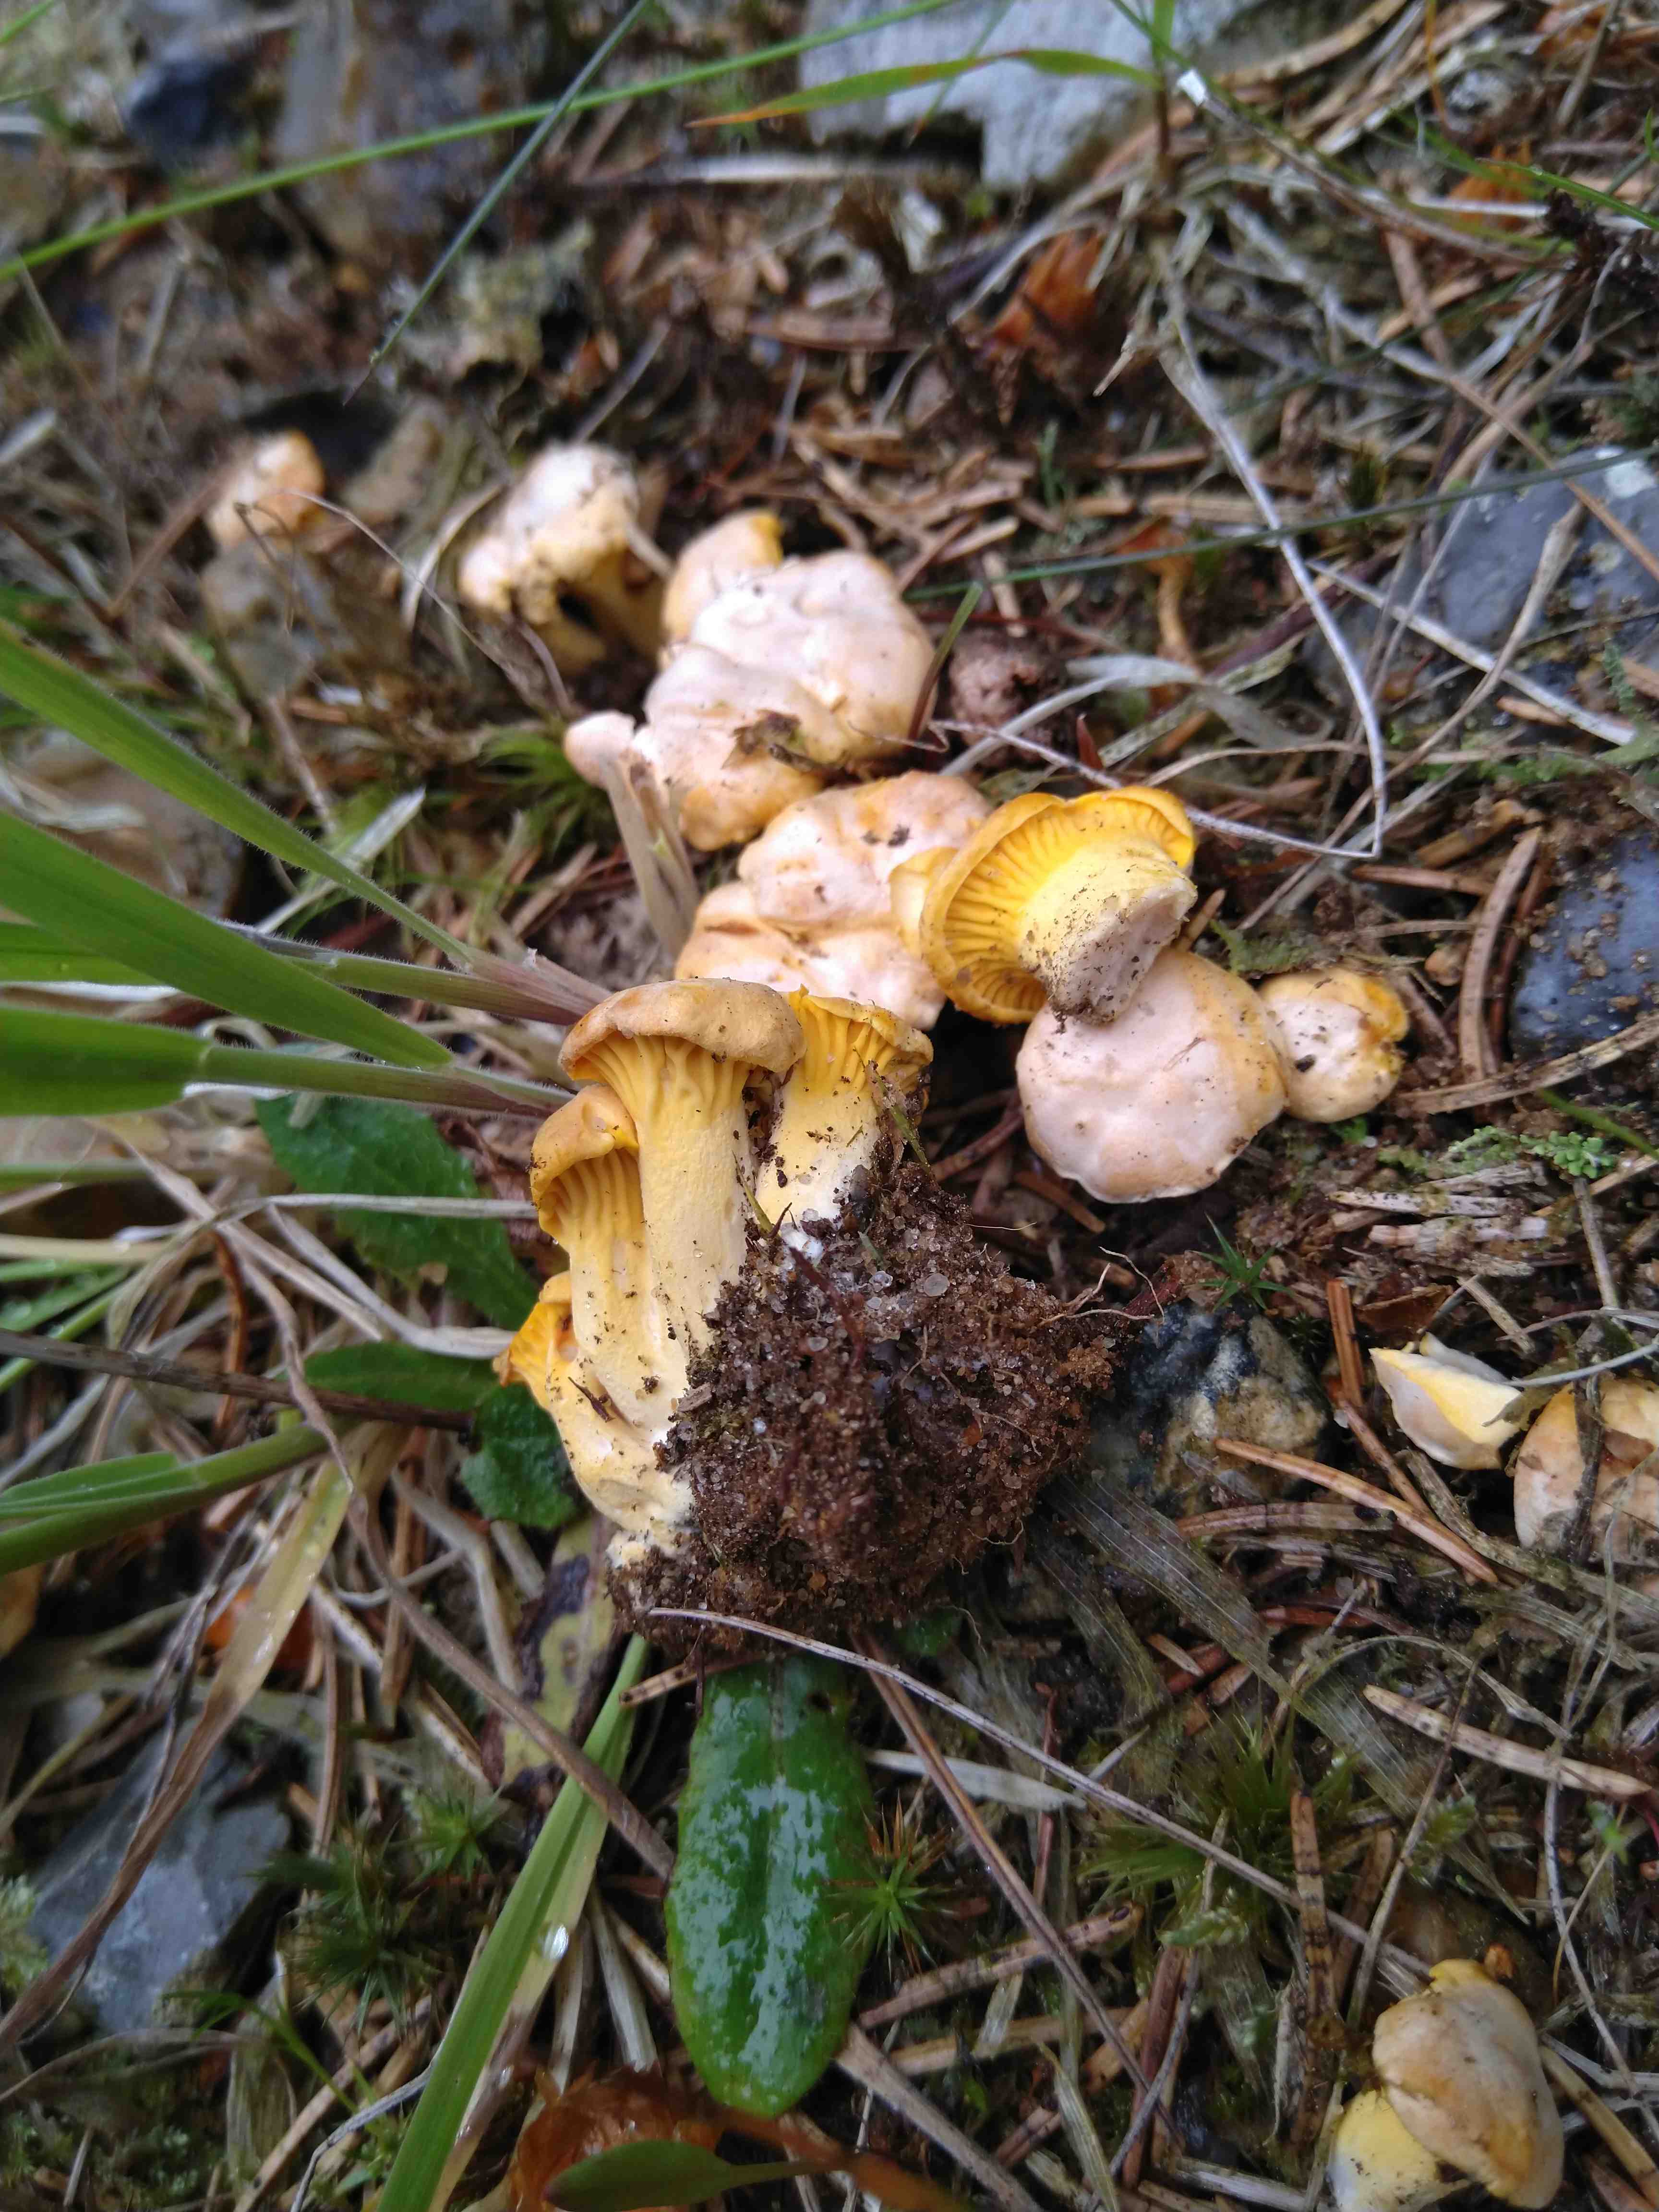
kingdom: Fungi
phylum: Basidiomycota
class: Agaricomycetes
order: Cantharellales
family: Hydnaceae
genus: Cantharellus
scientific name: Cantharellus cibarius
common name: almindelig kantarel
